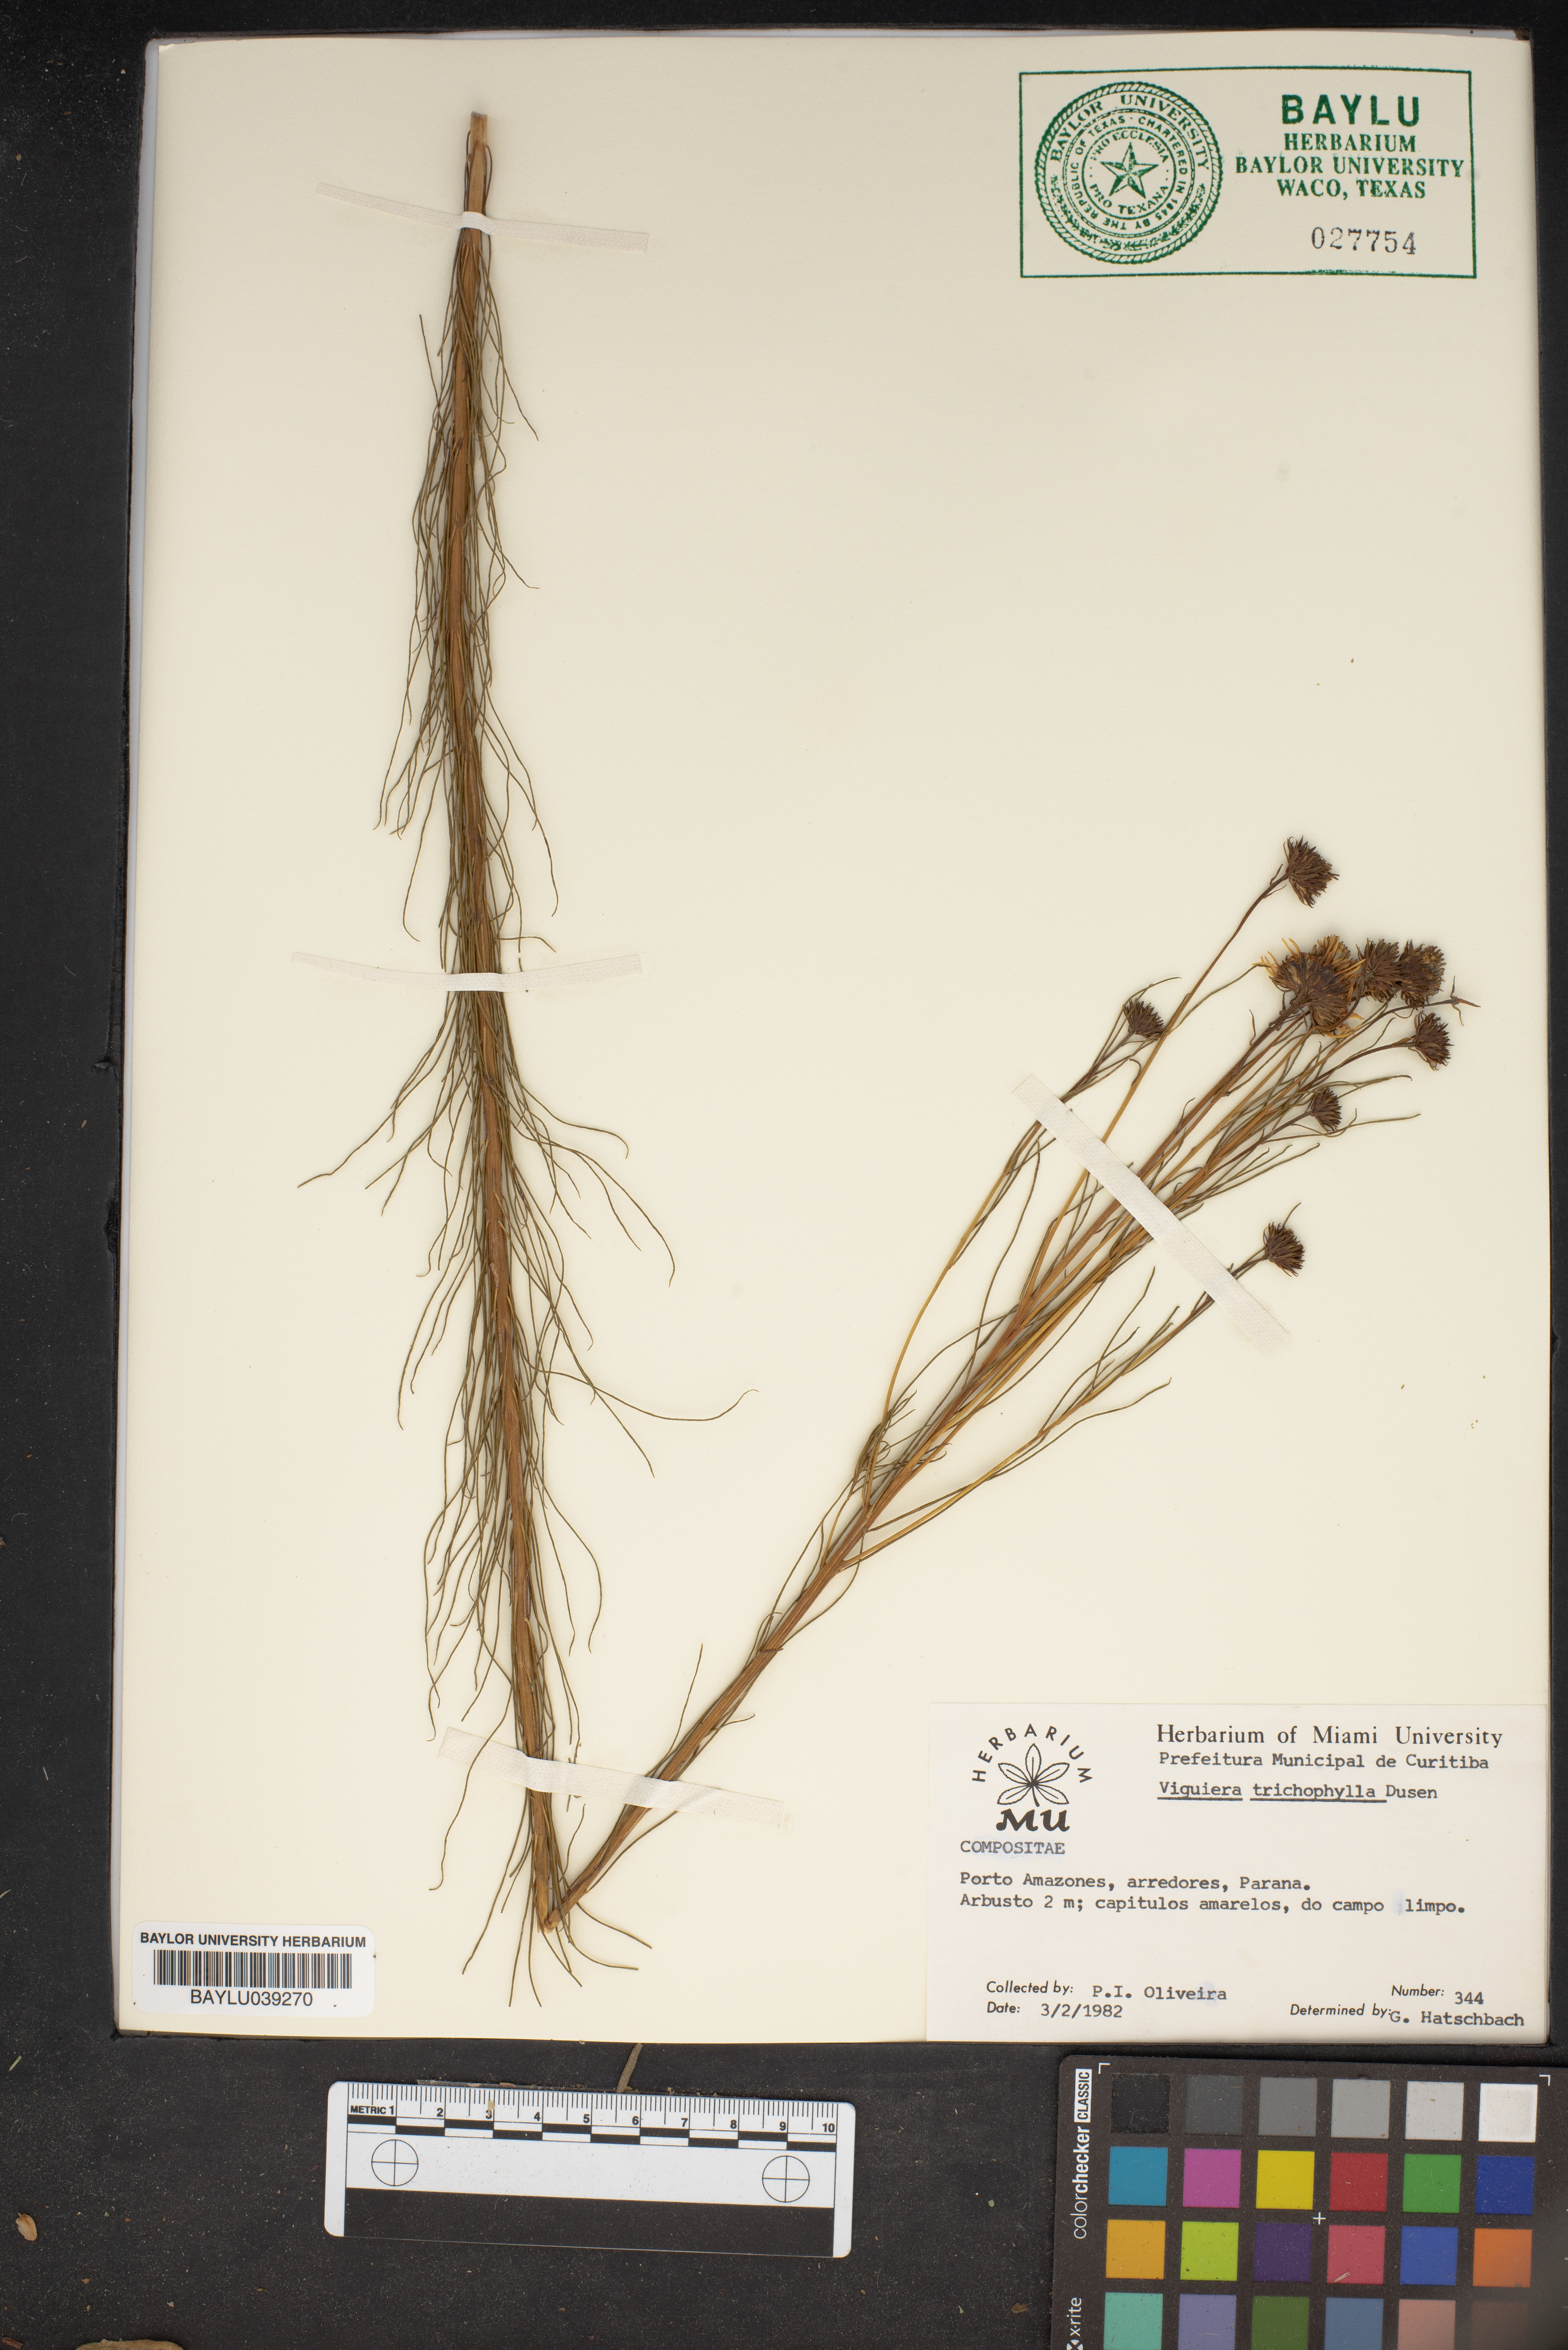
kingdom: Plantae
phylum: Tracheophyta
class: Magnoliopsida
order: Asterales
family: Asteraceae
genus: Dendroviguiera
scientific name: Dendroviguiera pringlei
